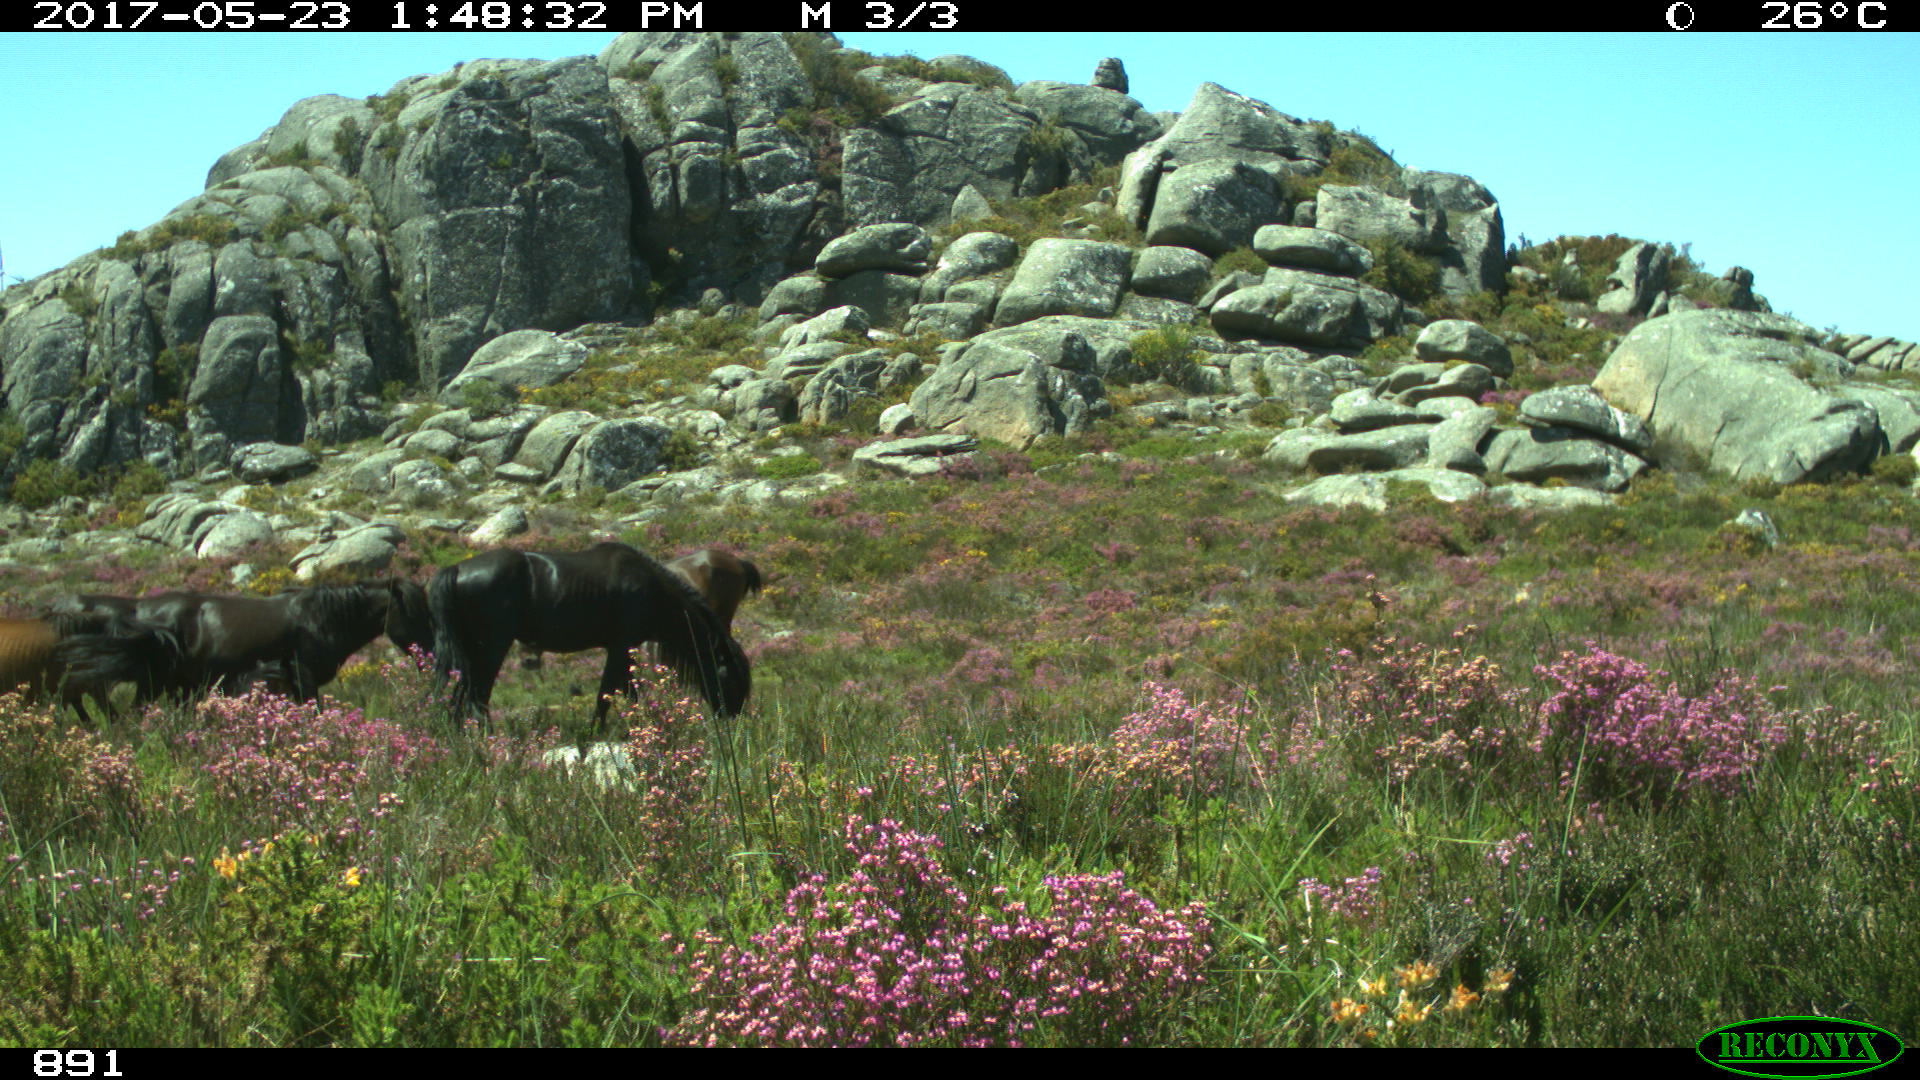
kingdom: Animalia
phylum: Chordata
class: Mammalia
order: Perissodactyla
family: Equidae
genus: Equus
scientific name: Equus caballus
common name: Horse
